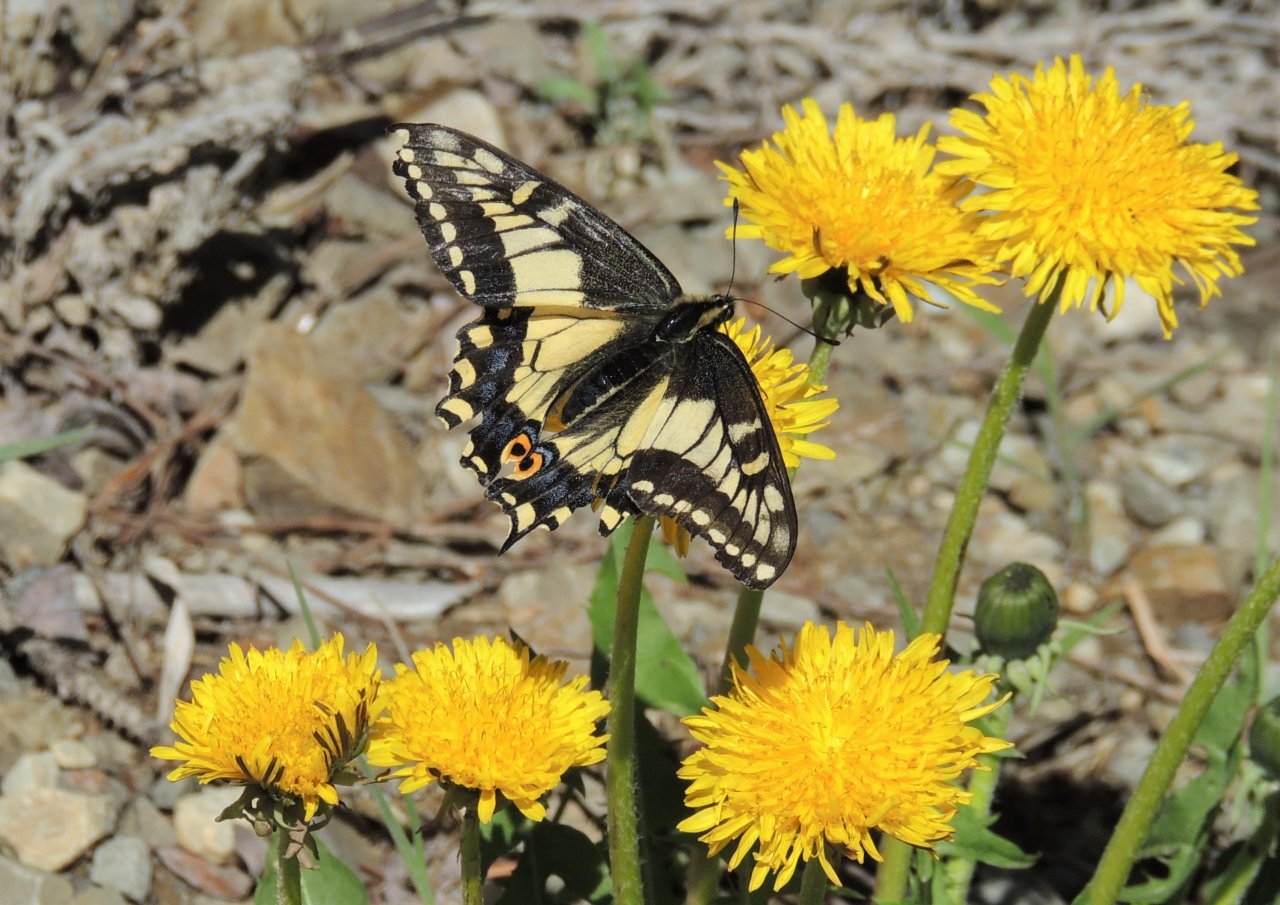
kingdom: Animalia
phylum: Arthropoda
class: Insecta
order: Lepidoptera
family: Papilionidae
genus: Papilio
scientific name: Papilio zelicaon
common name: Anise Swallowtail
